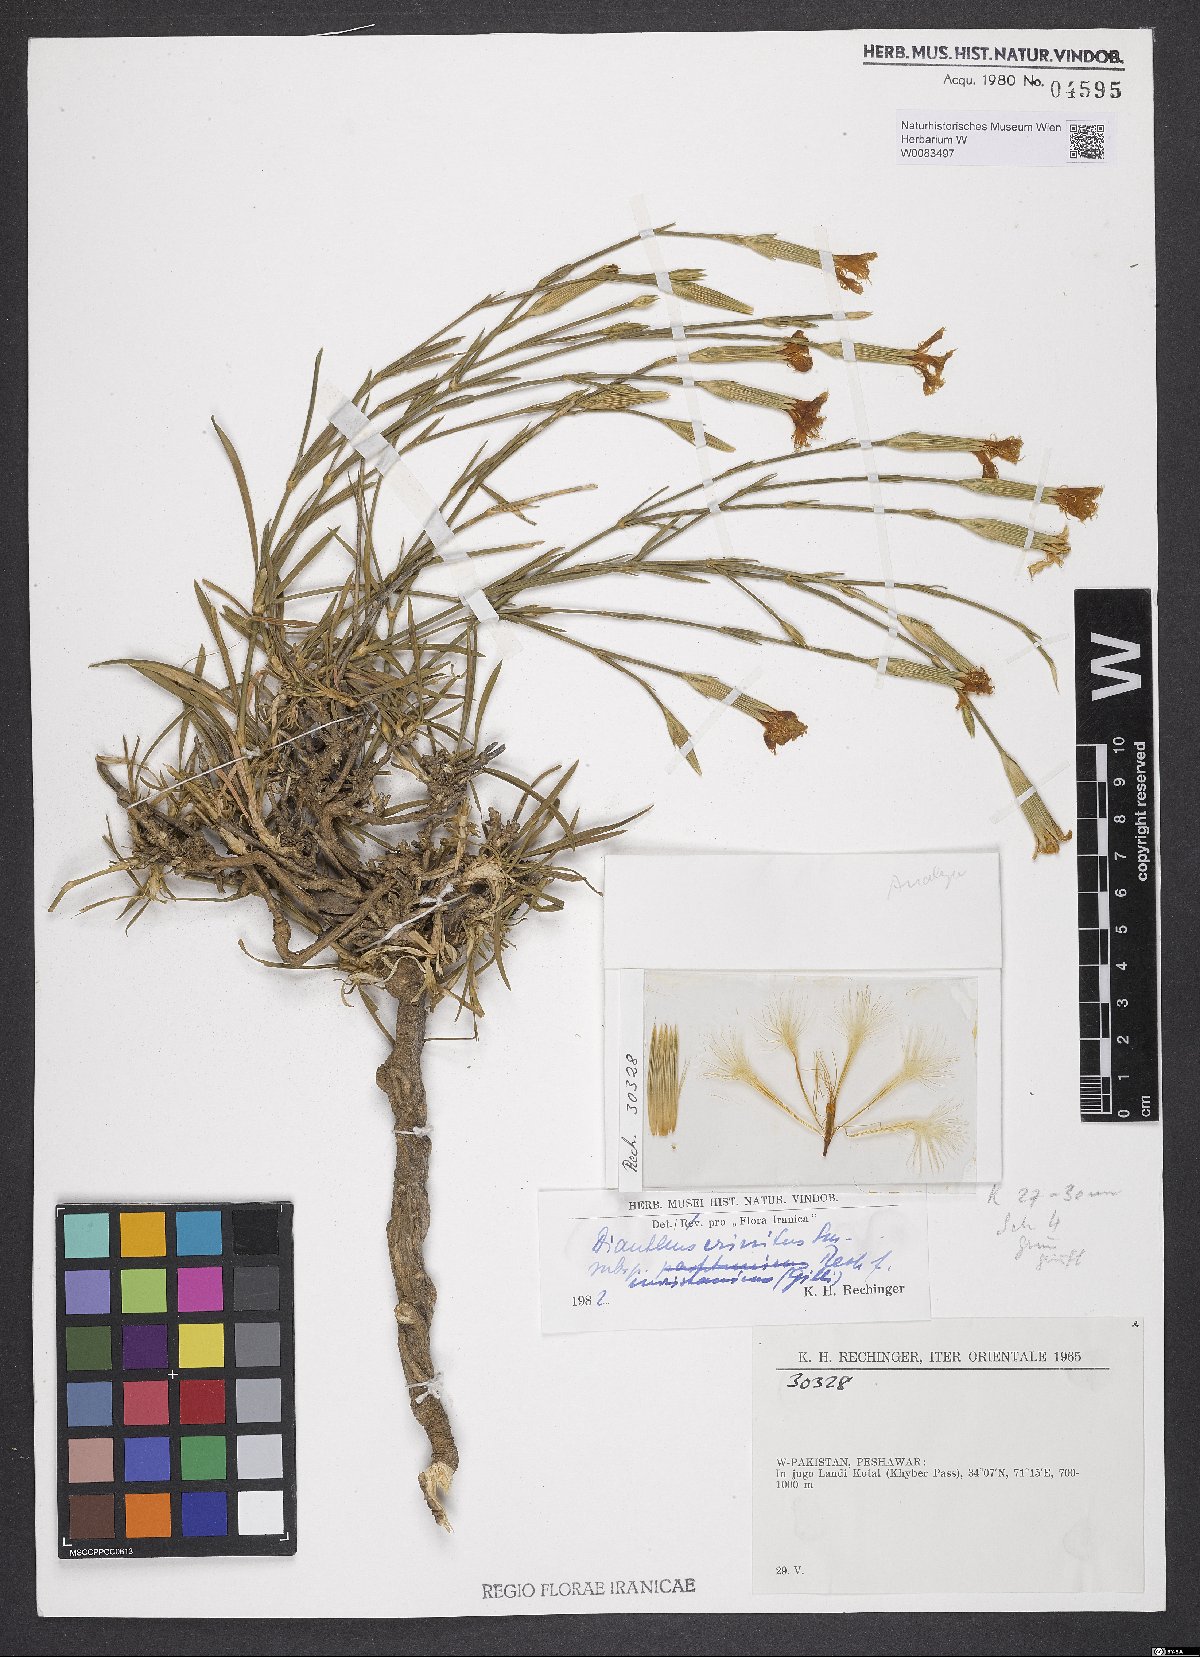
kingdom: Plantae
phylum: Tracheophyta
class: Magnoliopsida
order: Caryophyllales
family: Caryophyllaceae
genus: Dianthus
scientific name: Dianthus crinitus
